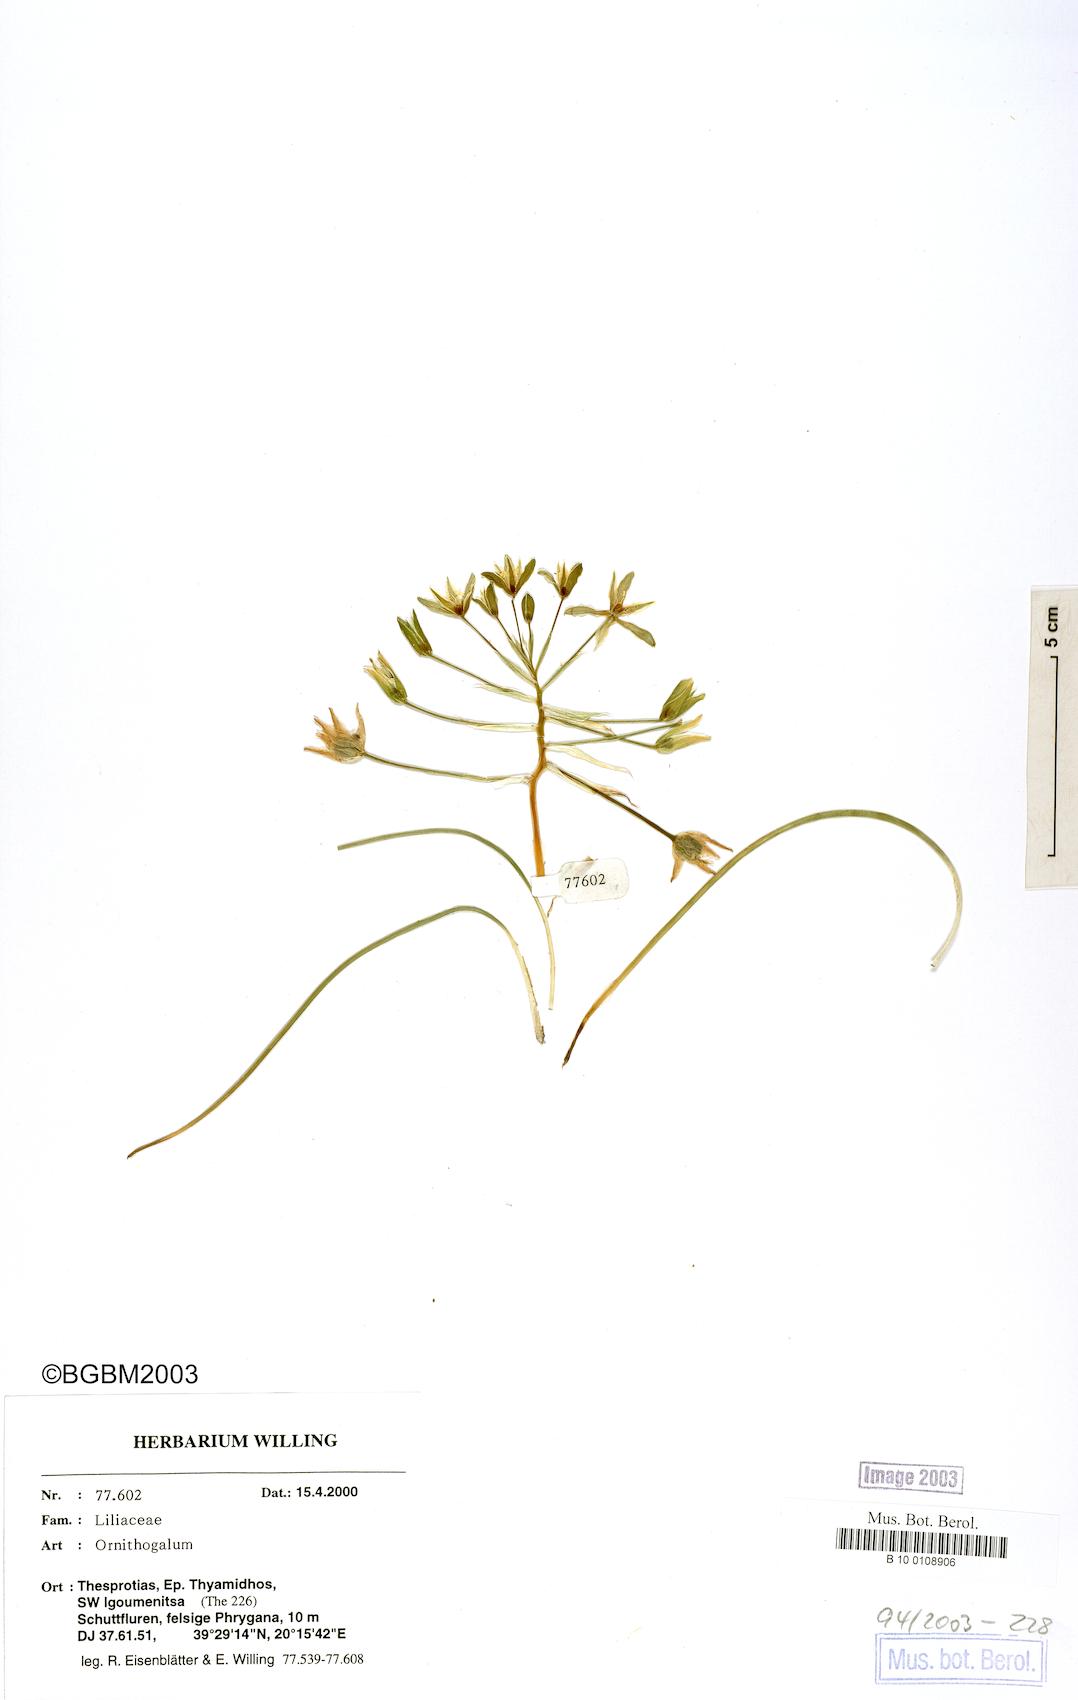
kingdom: Plantae
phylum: Tracheophyta
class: Liliopsida
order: Asparagales
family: Asparagaceae
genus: Ornithogalum
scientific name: Ornithogalum
